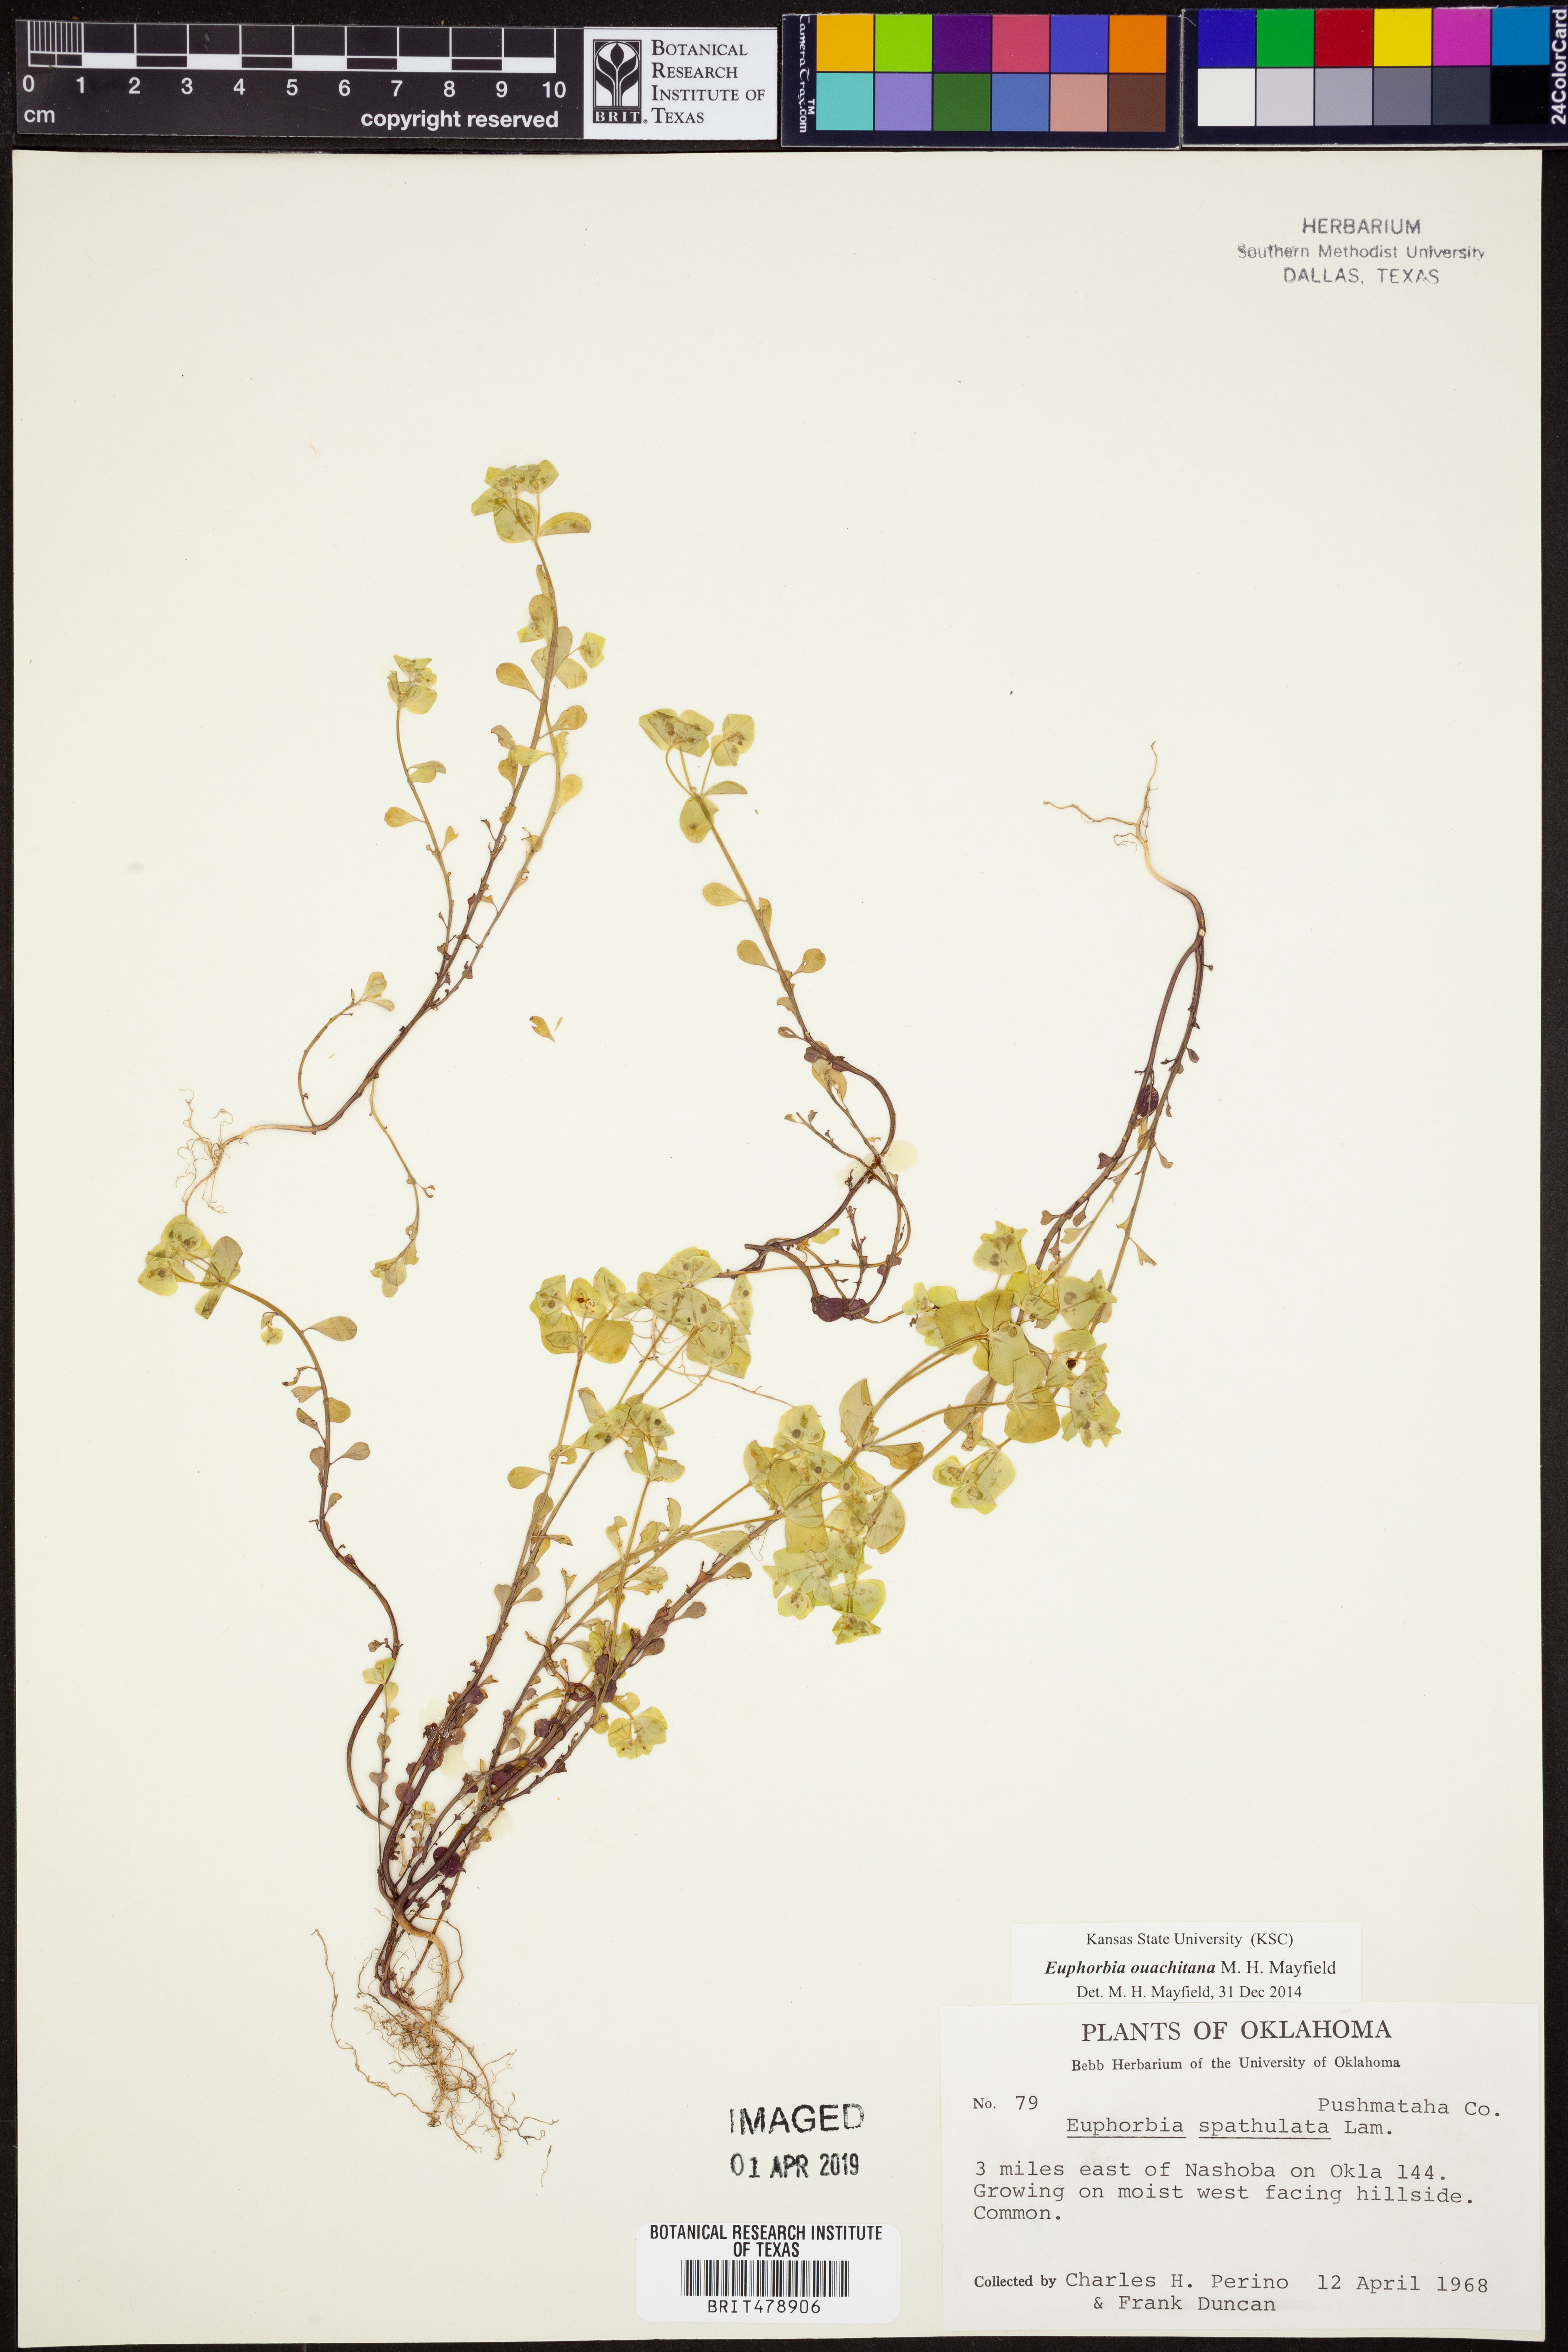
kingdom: Plantae
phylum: Tracheophyta
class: Magnoliopsida
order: Malpighiales
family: Euphorbiaceae
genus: Euphorbia
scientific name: Euphorbia ouachitana
